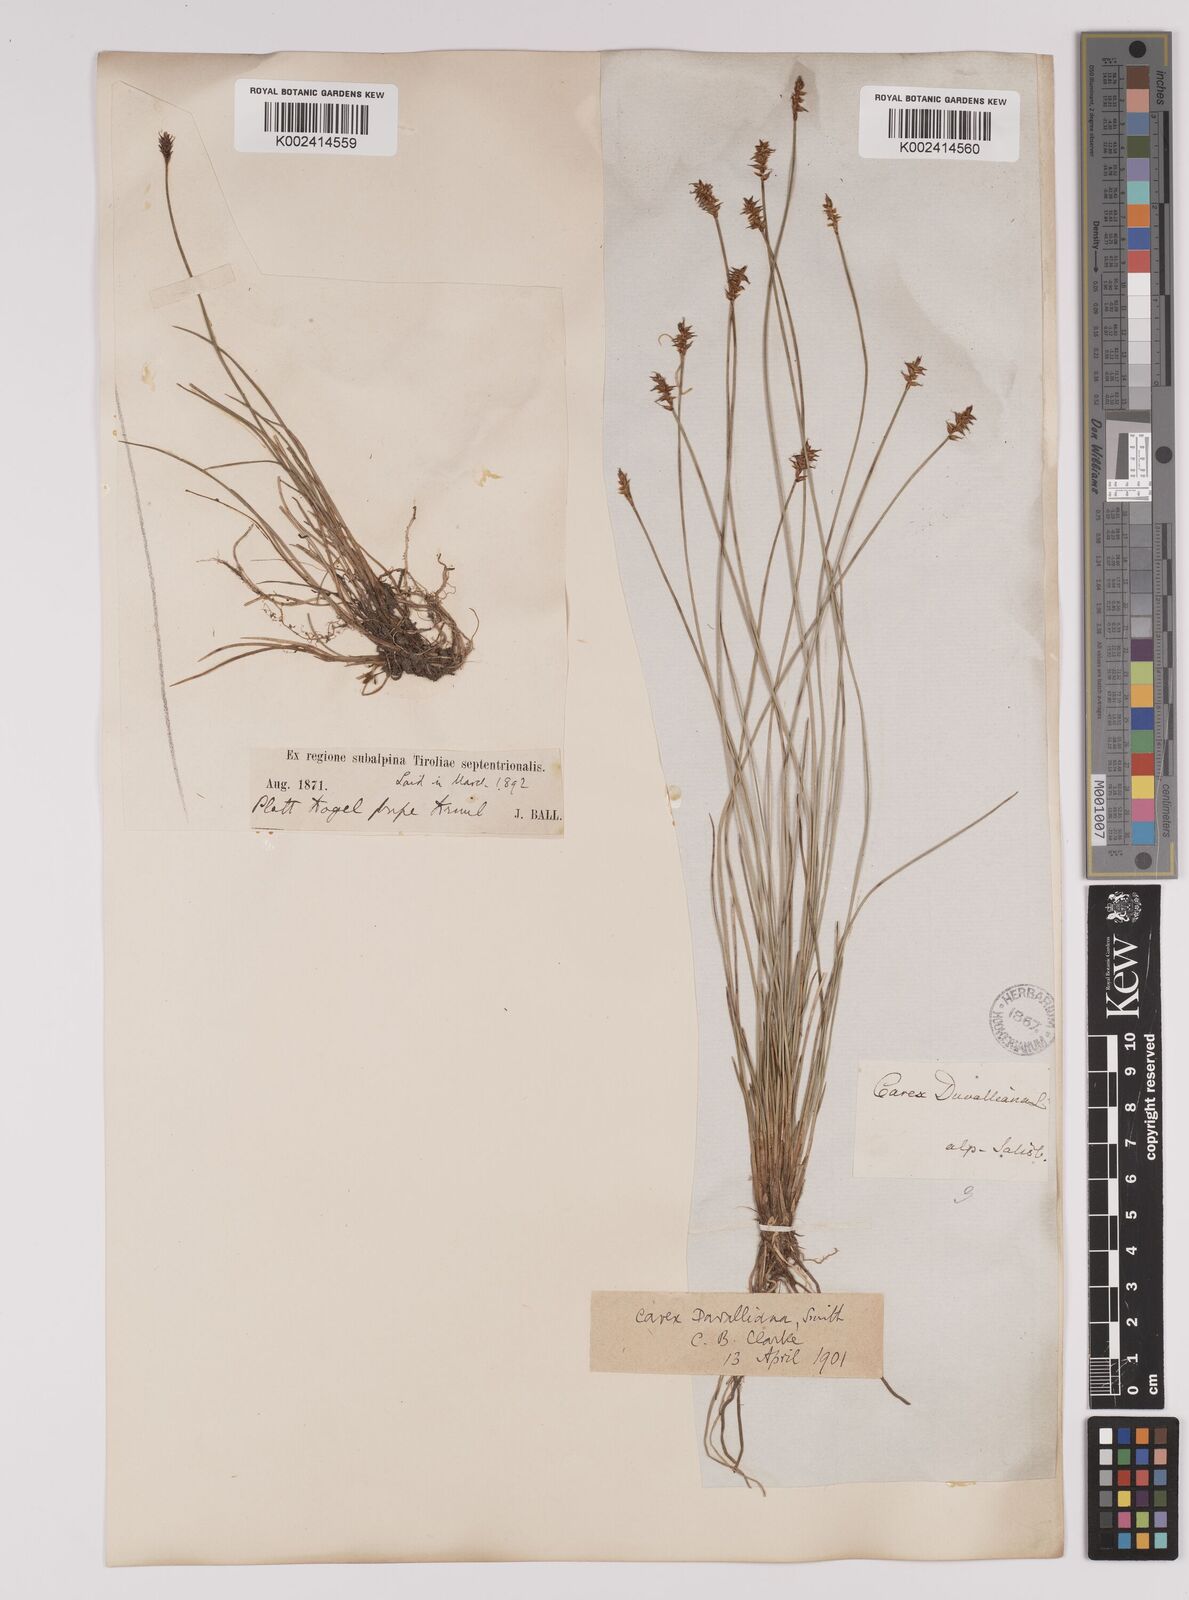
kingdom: Plantae
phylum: Tracheophyta
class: Liliopsida
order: Poales
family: Cyperaceae
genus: Carex
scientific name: Carex davalliana
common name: Davall's sedge
